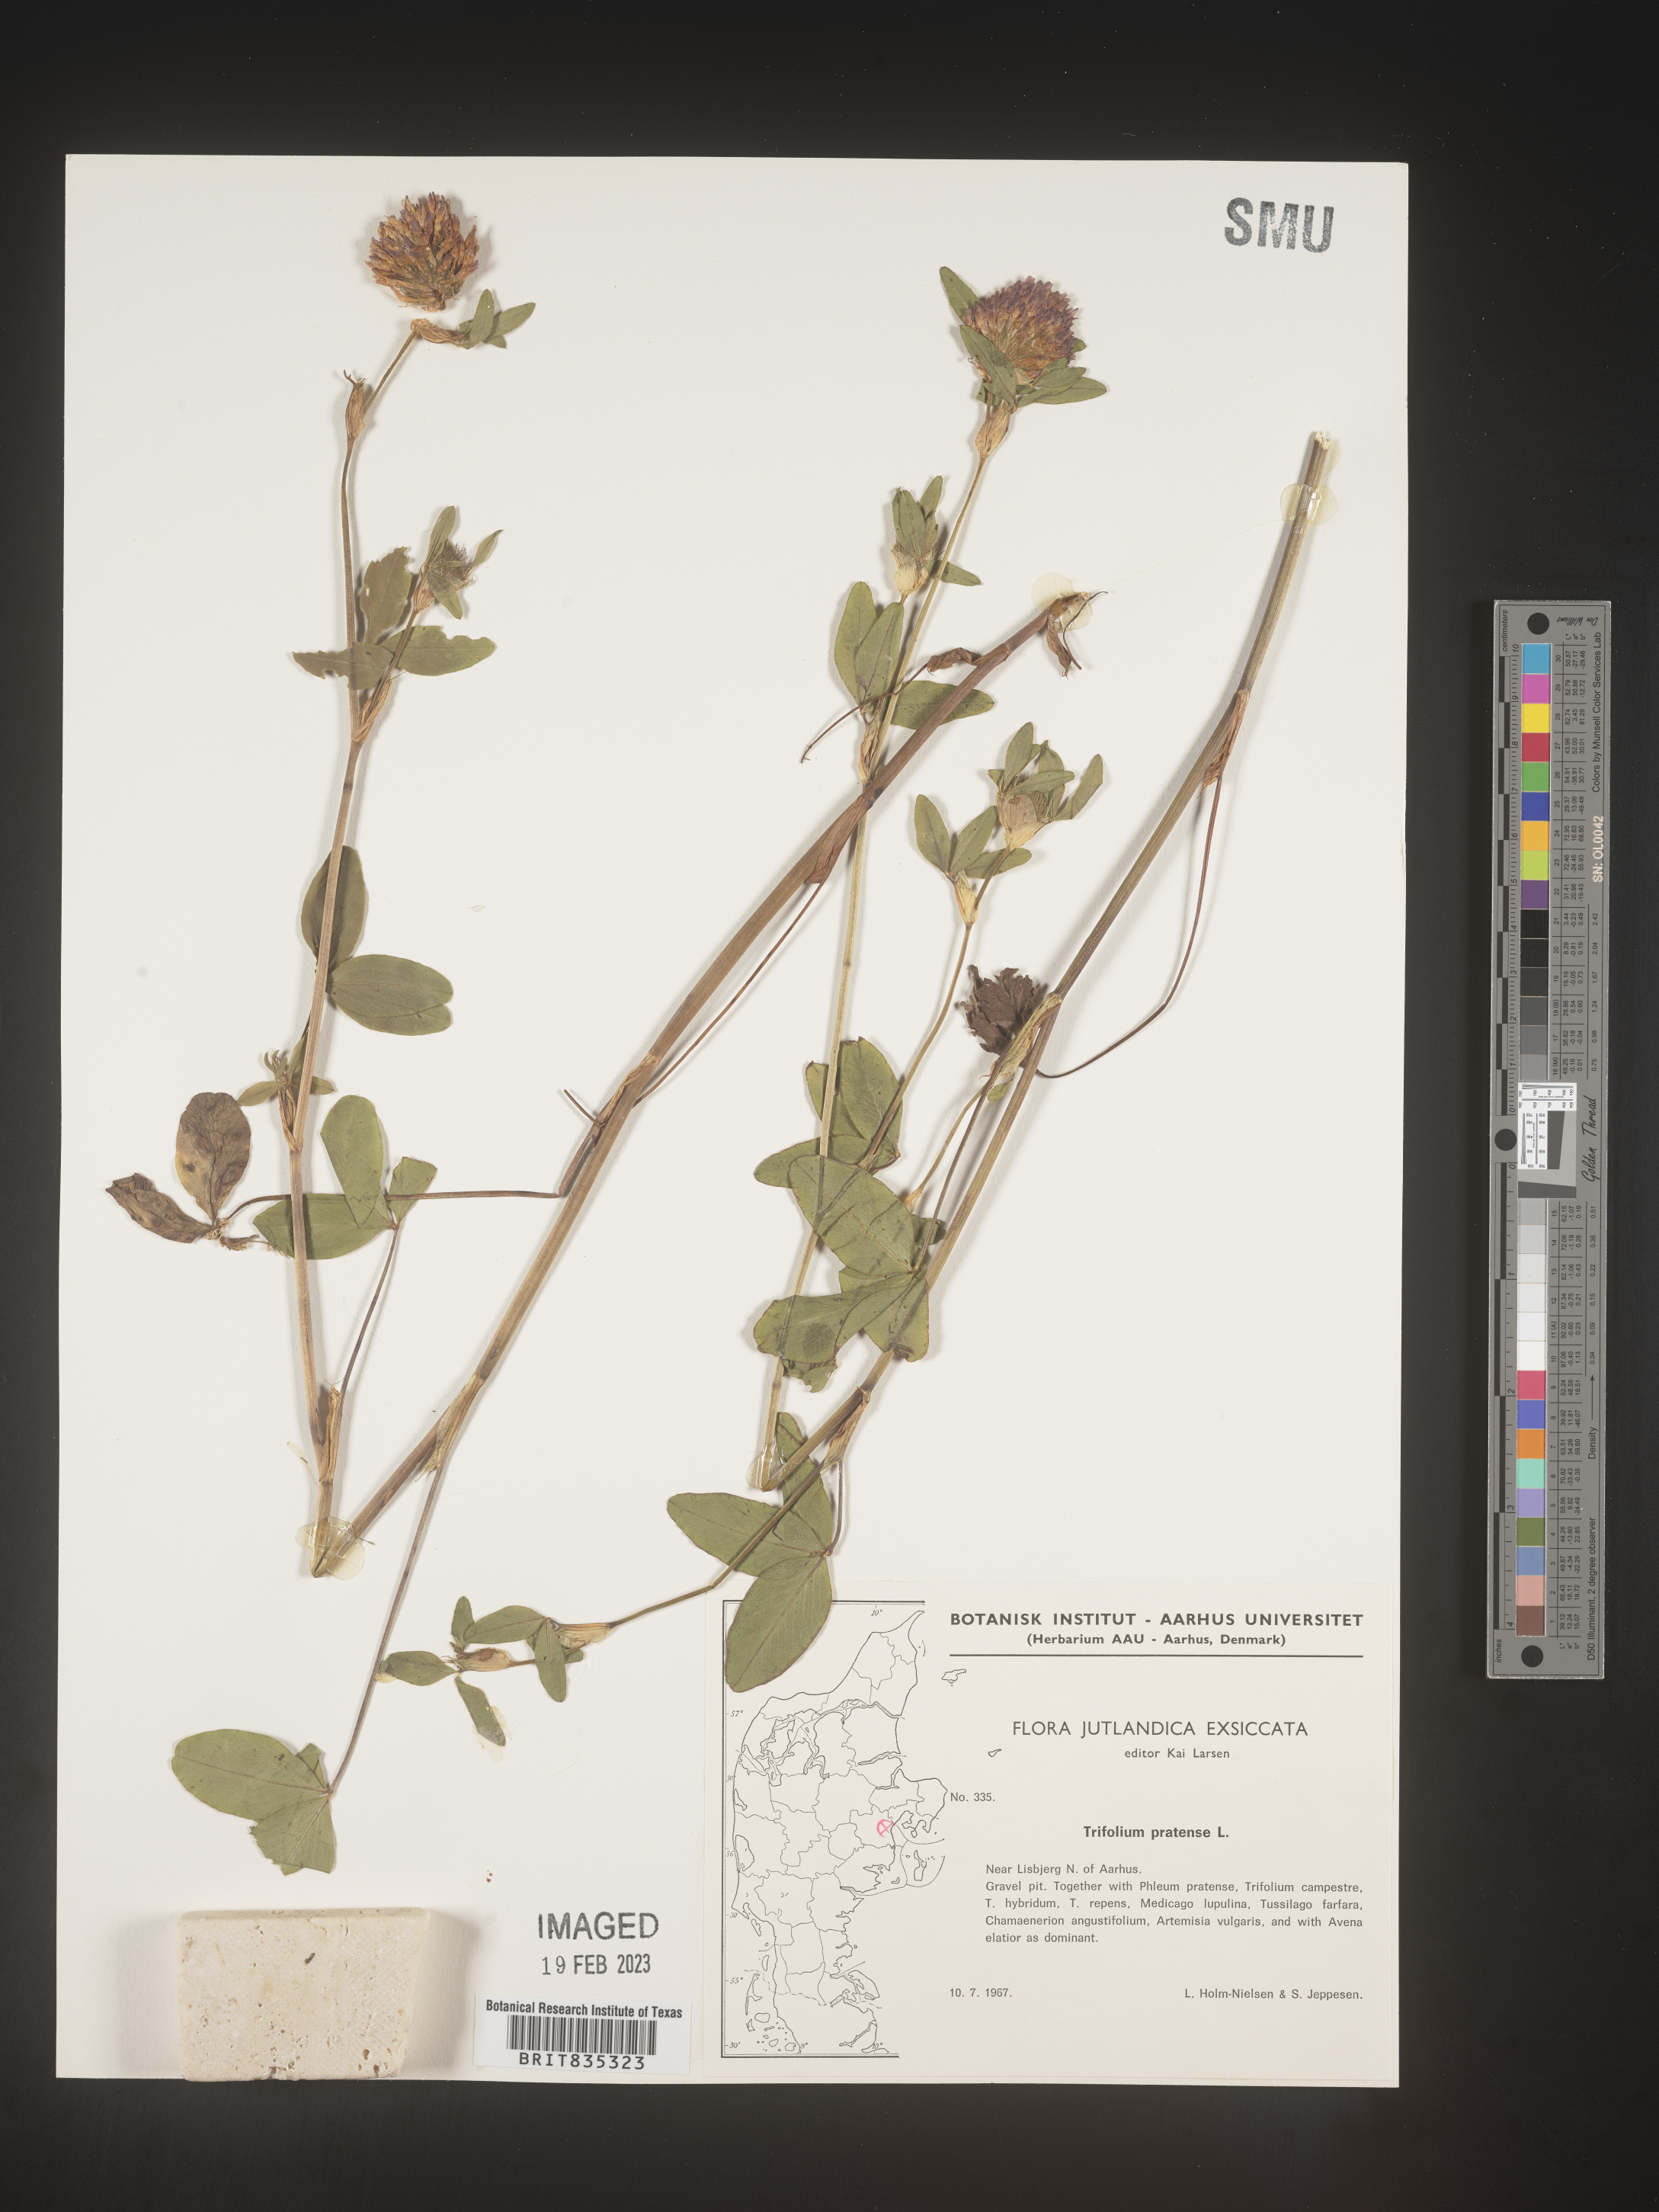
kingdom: Plantae
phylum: Tracheophyta
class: Magnoliopsida
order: Fabales
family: Fabaceae
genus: Trifolium
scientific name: Trifolium
